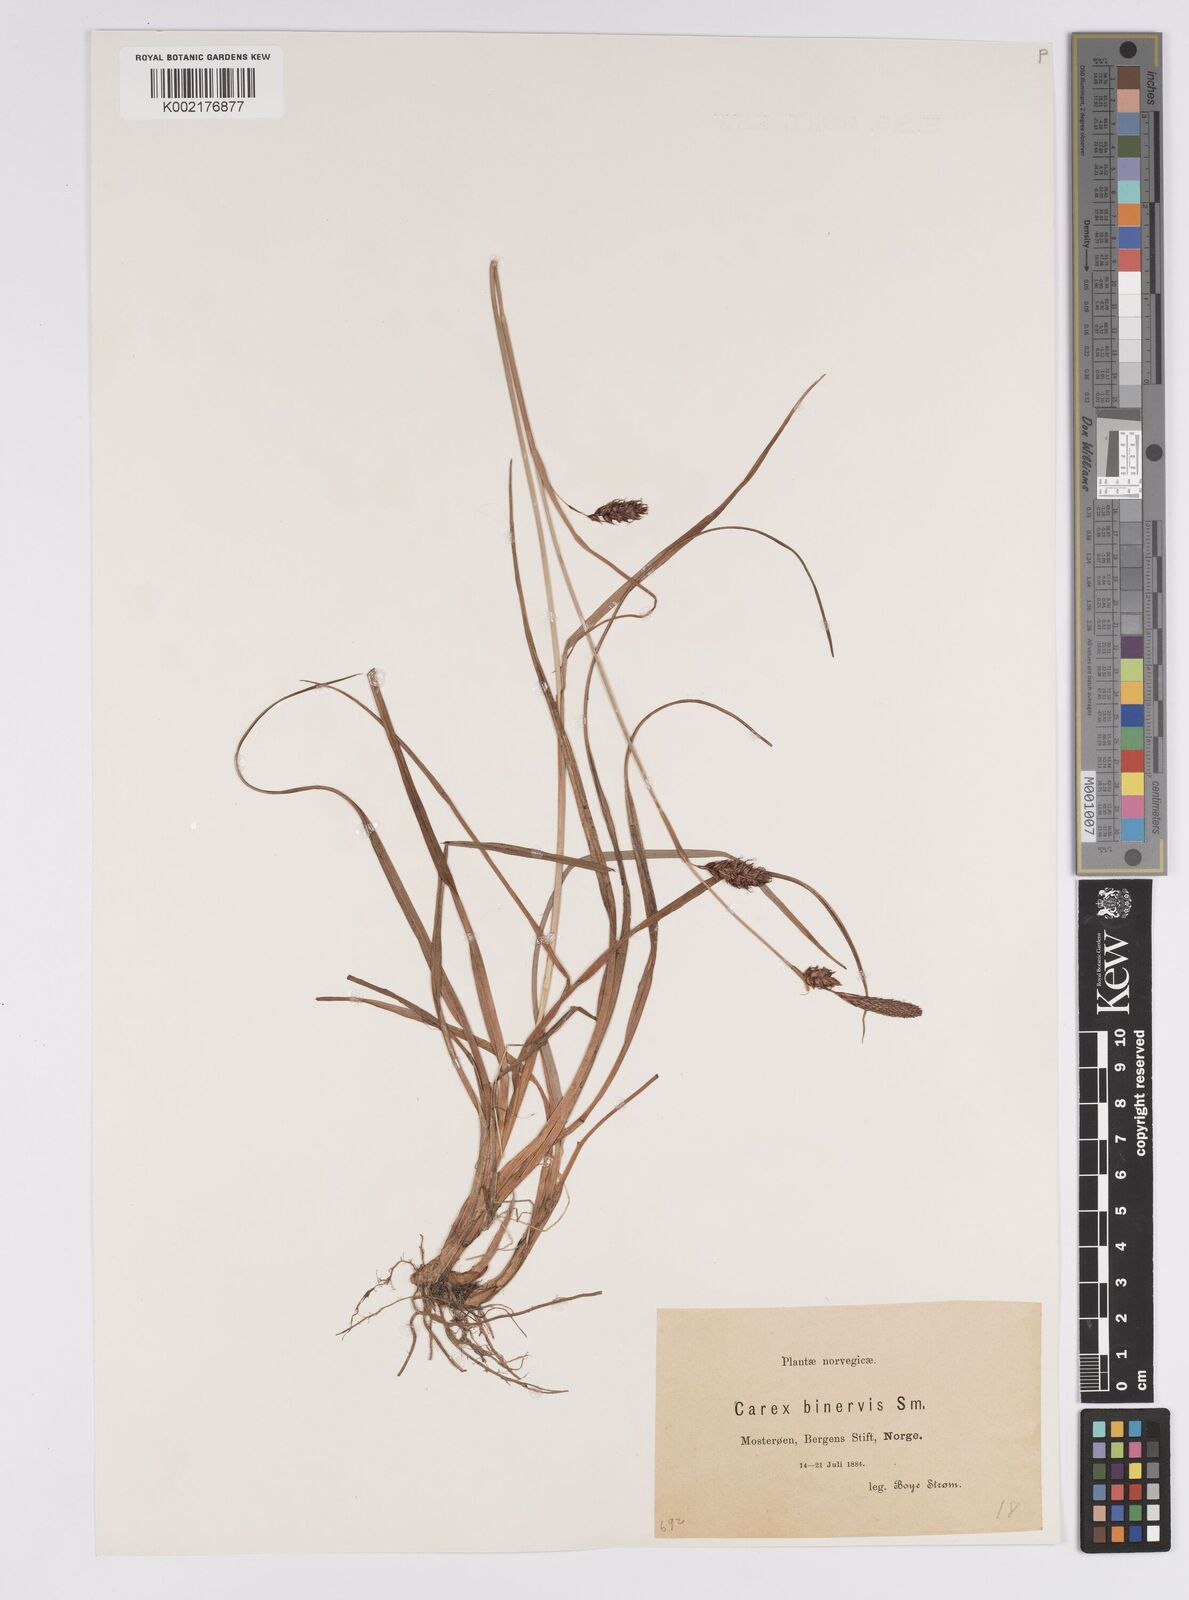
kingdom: Plantae
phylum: Tracheophyta
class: Liliopsida
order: Poales
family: Cyperaceae
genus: Carex
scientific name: Carex binervis
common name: Green-ribbed sedge
